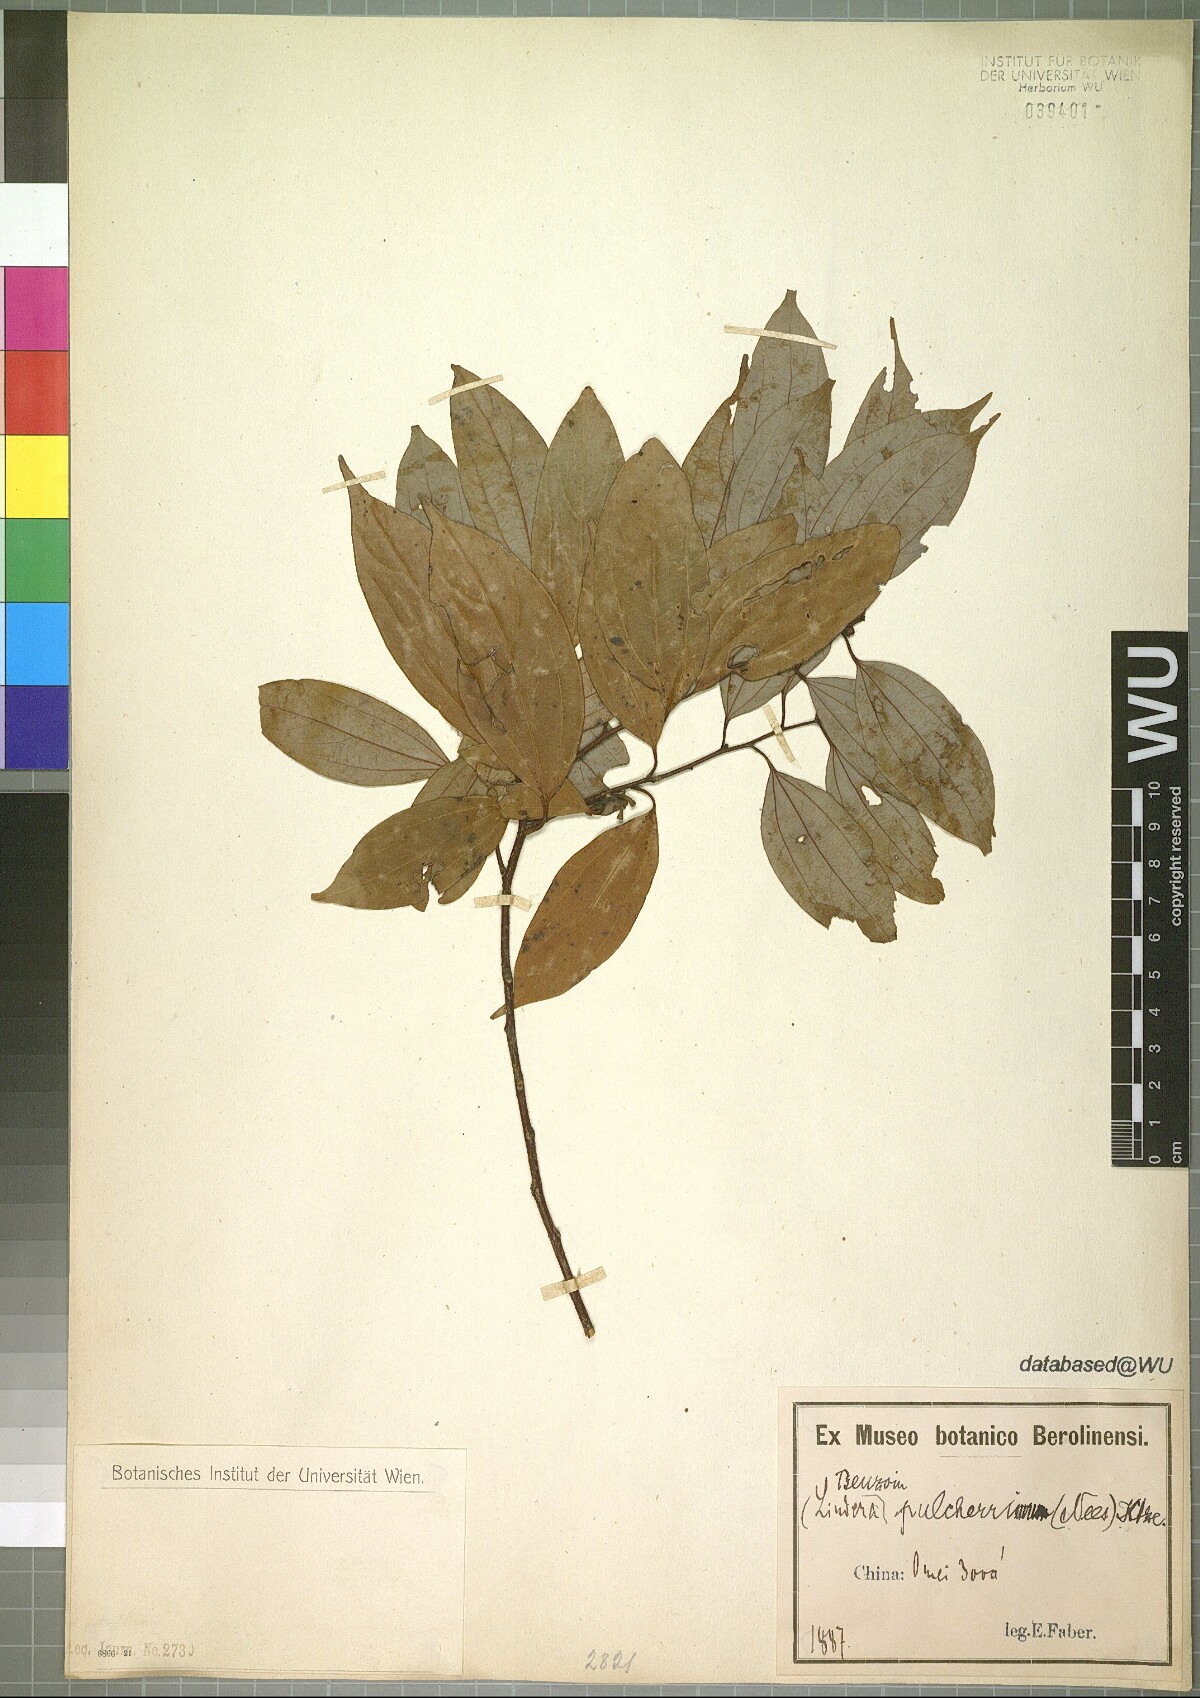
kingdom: Plantae
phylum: Tracheophyta
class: Magnoliopsida
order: Laurales
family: Lauraceae
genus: Lindera
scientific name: Lindera pulcherrima
